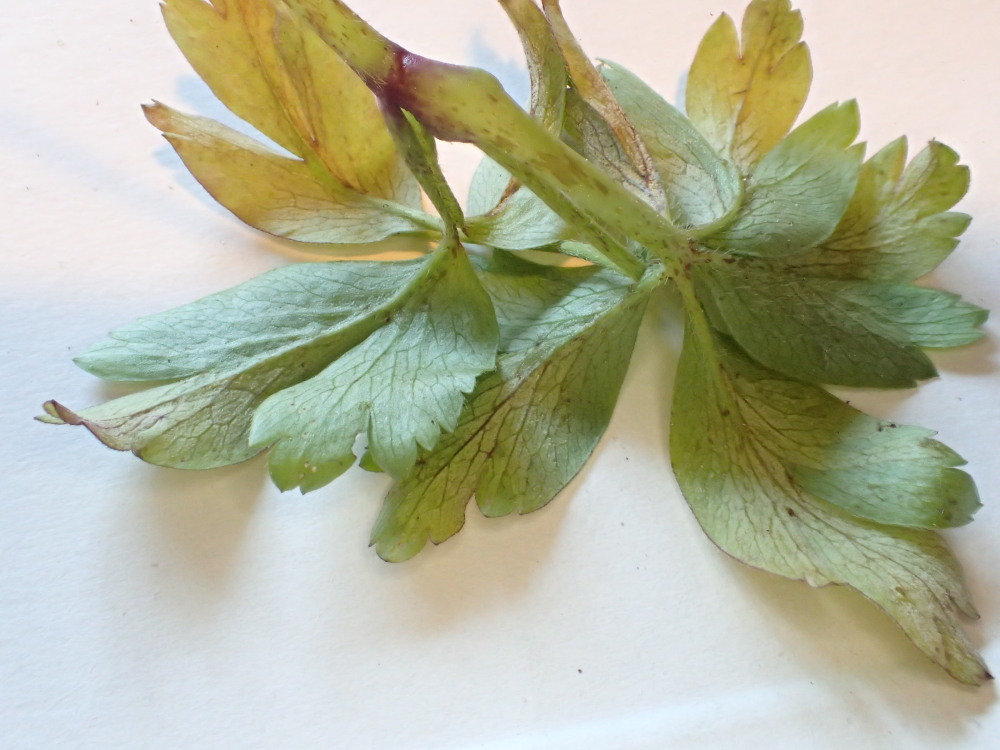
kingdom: Chromista
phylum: Oomycota
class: Peronosporea
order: Peronosporales
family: Peronosporaceae
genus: Plasmoverna
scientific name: Plasmoverna pygmaea
